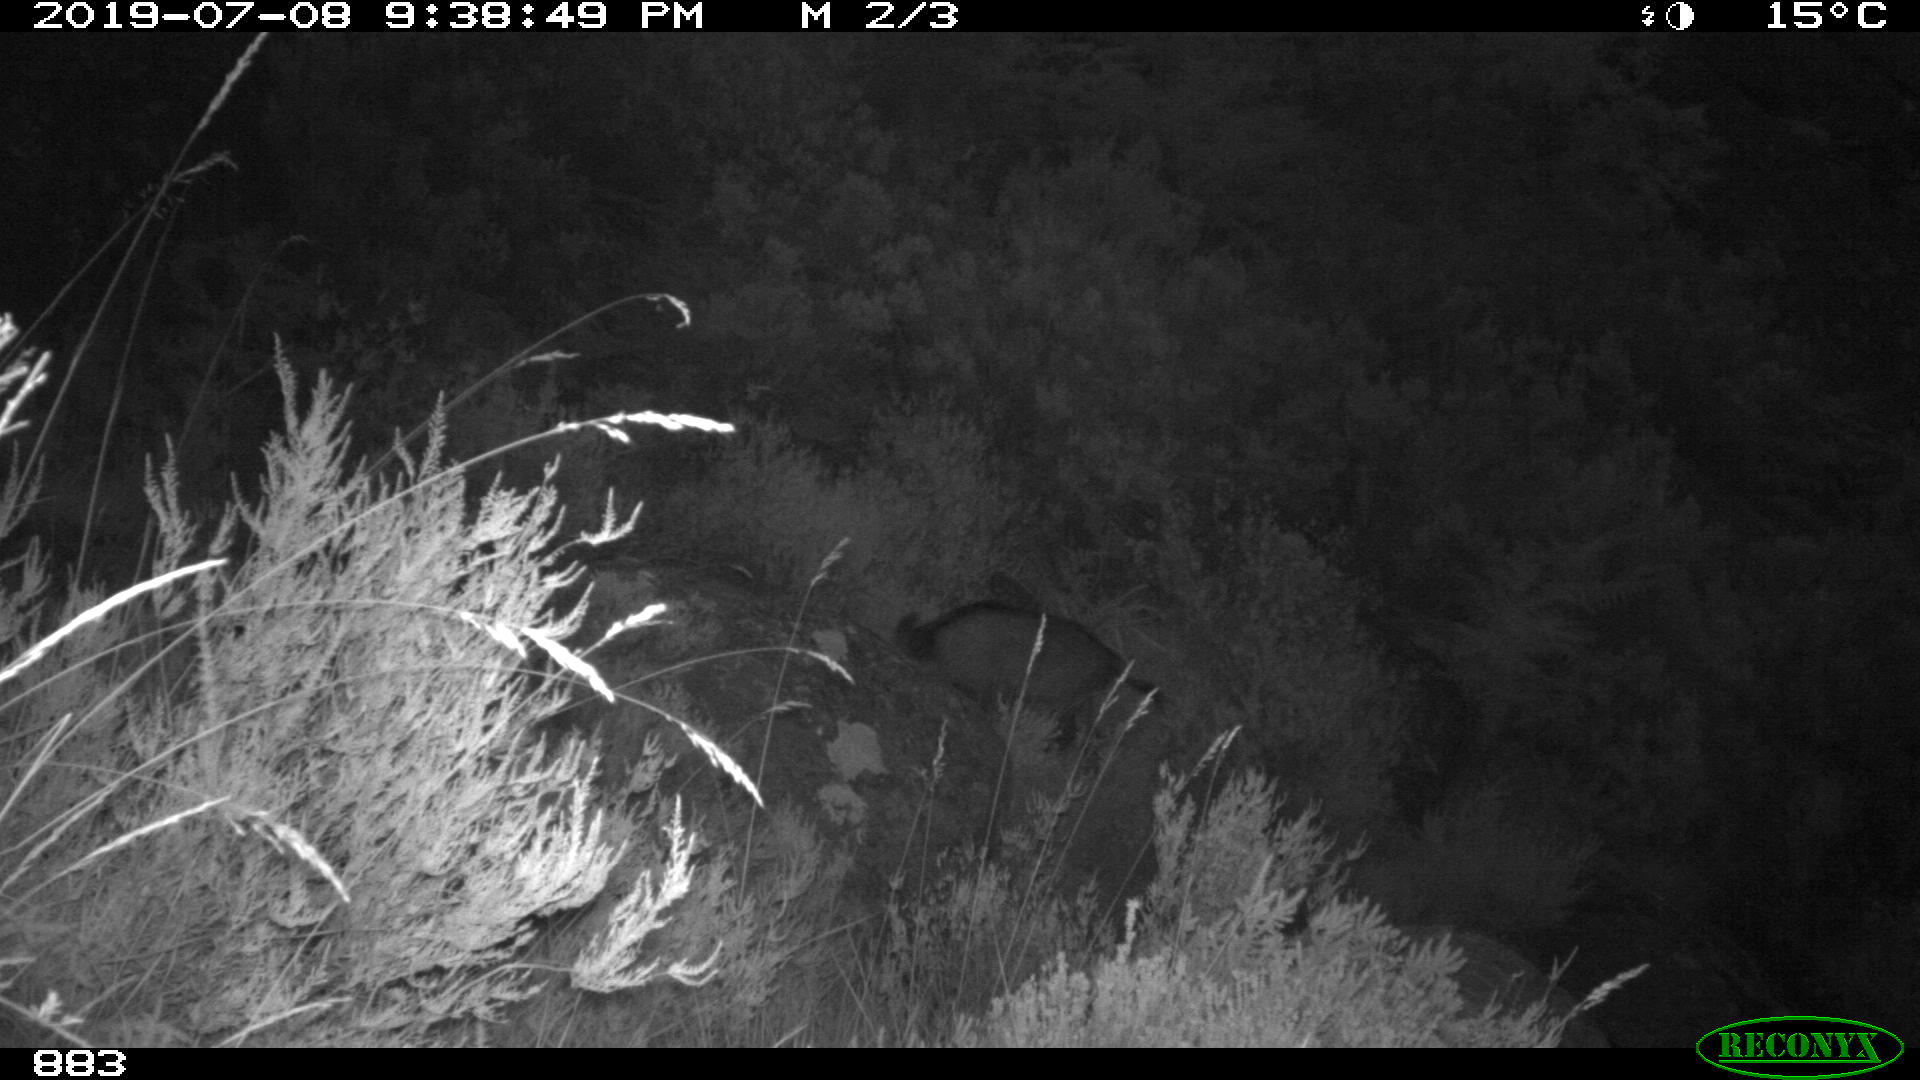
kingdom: Animalia
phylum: Chordata
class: Mammalia
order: Artiodactyla
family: Suidae
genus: Sus
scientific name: Sus scrofa
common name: Wild boar
